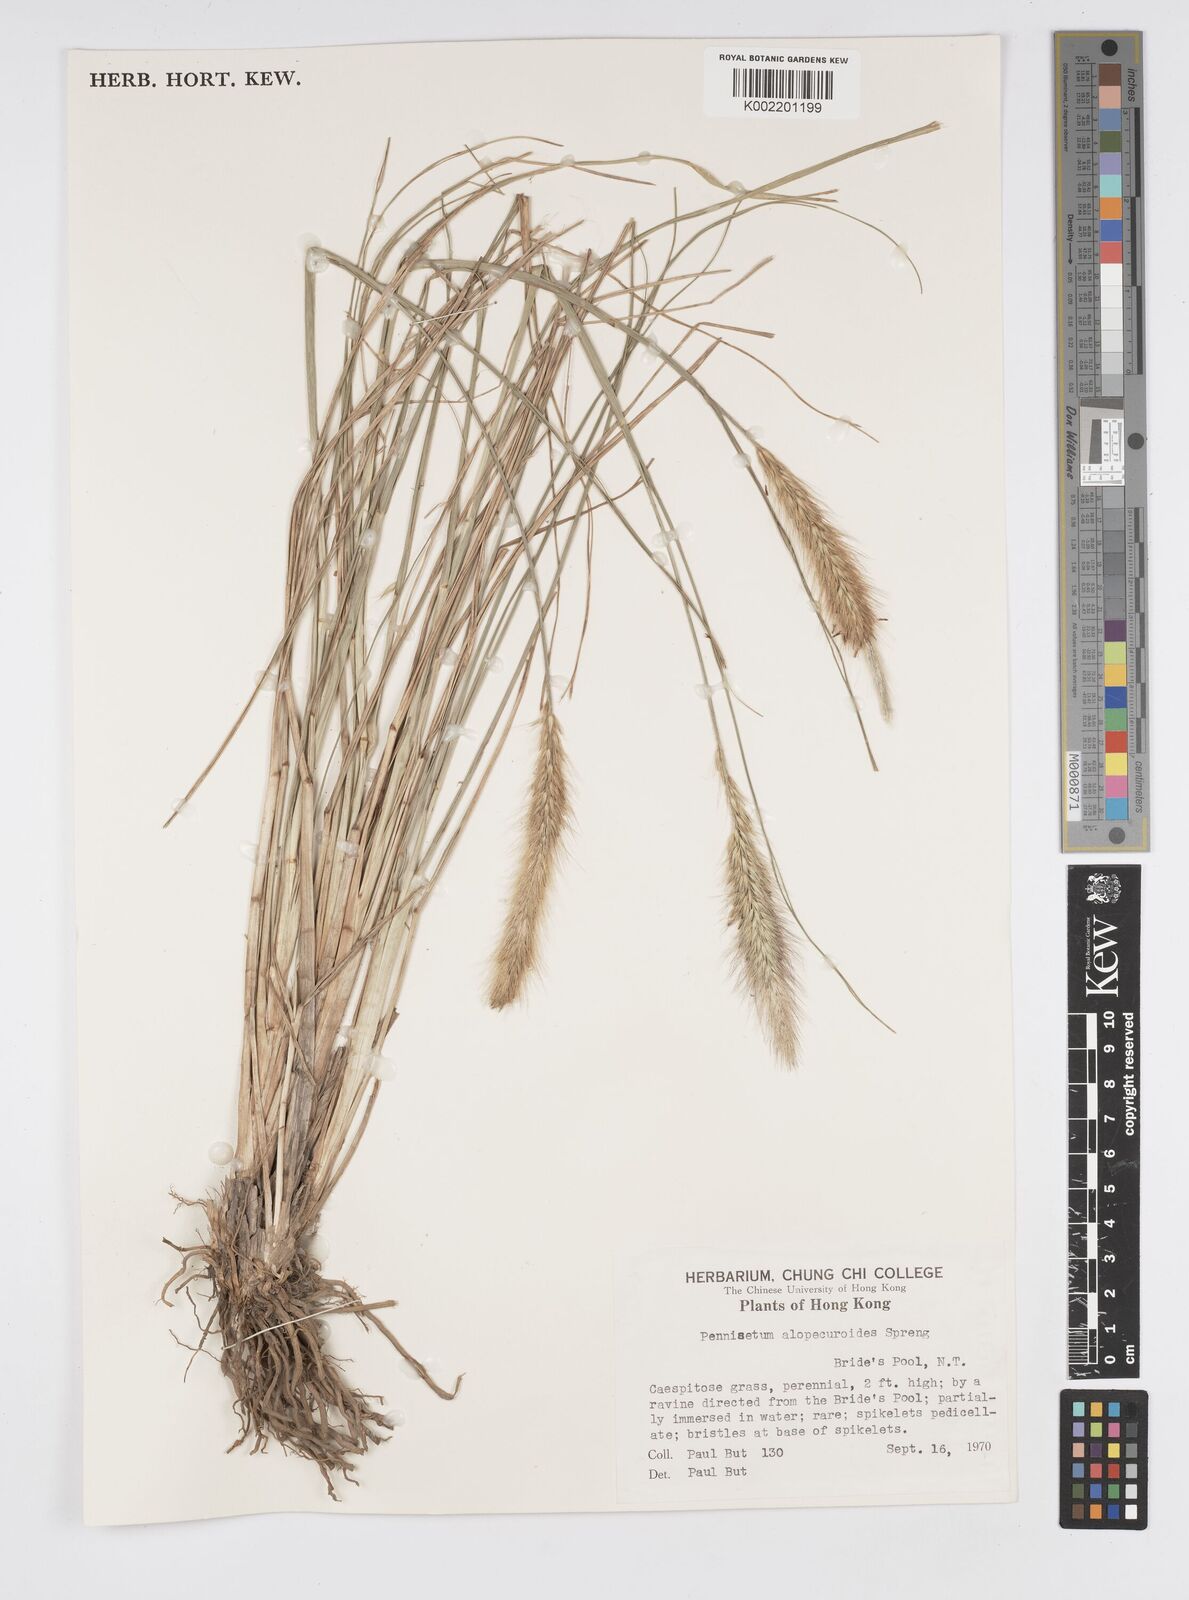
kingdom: Plantae
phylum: Tracheophyta
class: Liliopsida
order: Poales
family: Poaceae
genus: Cenchrus
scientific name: Cenchrus alopecuroides
